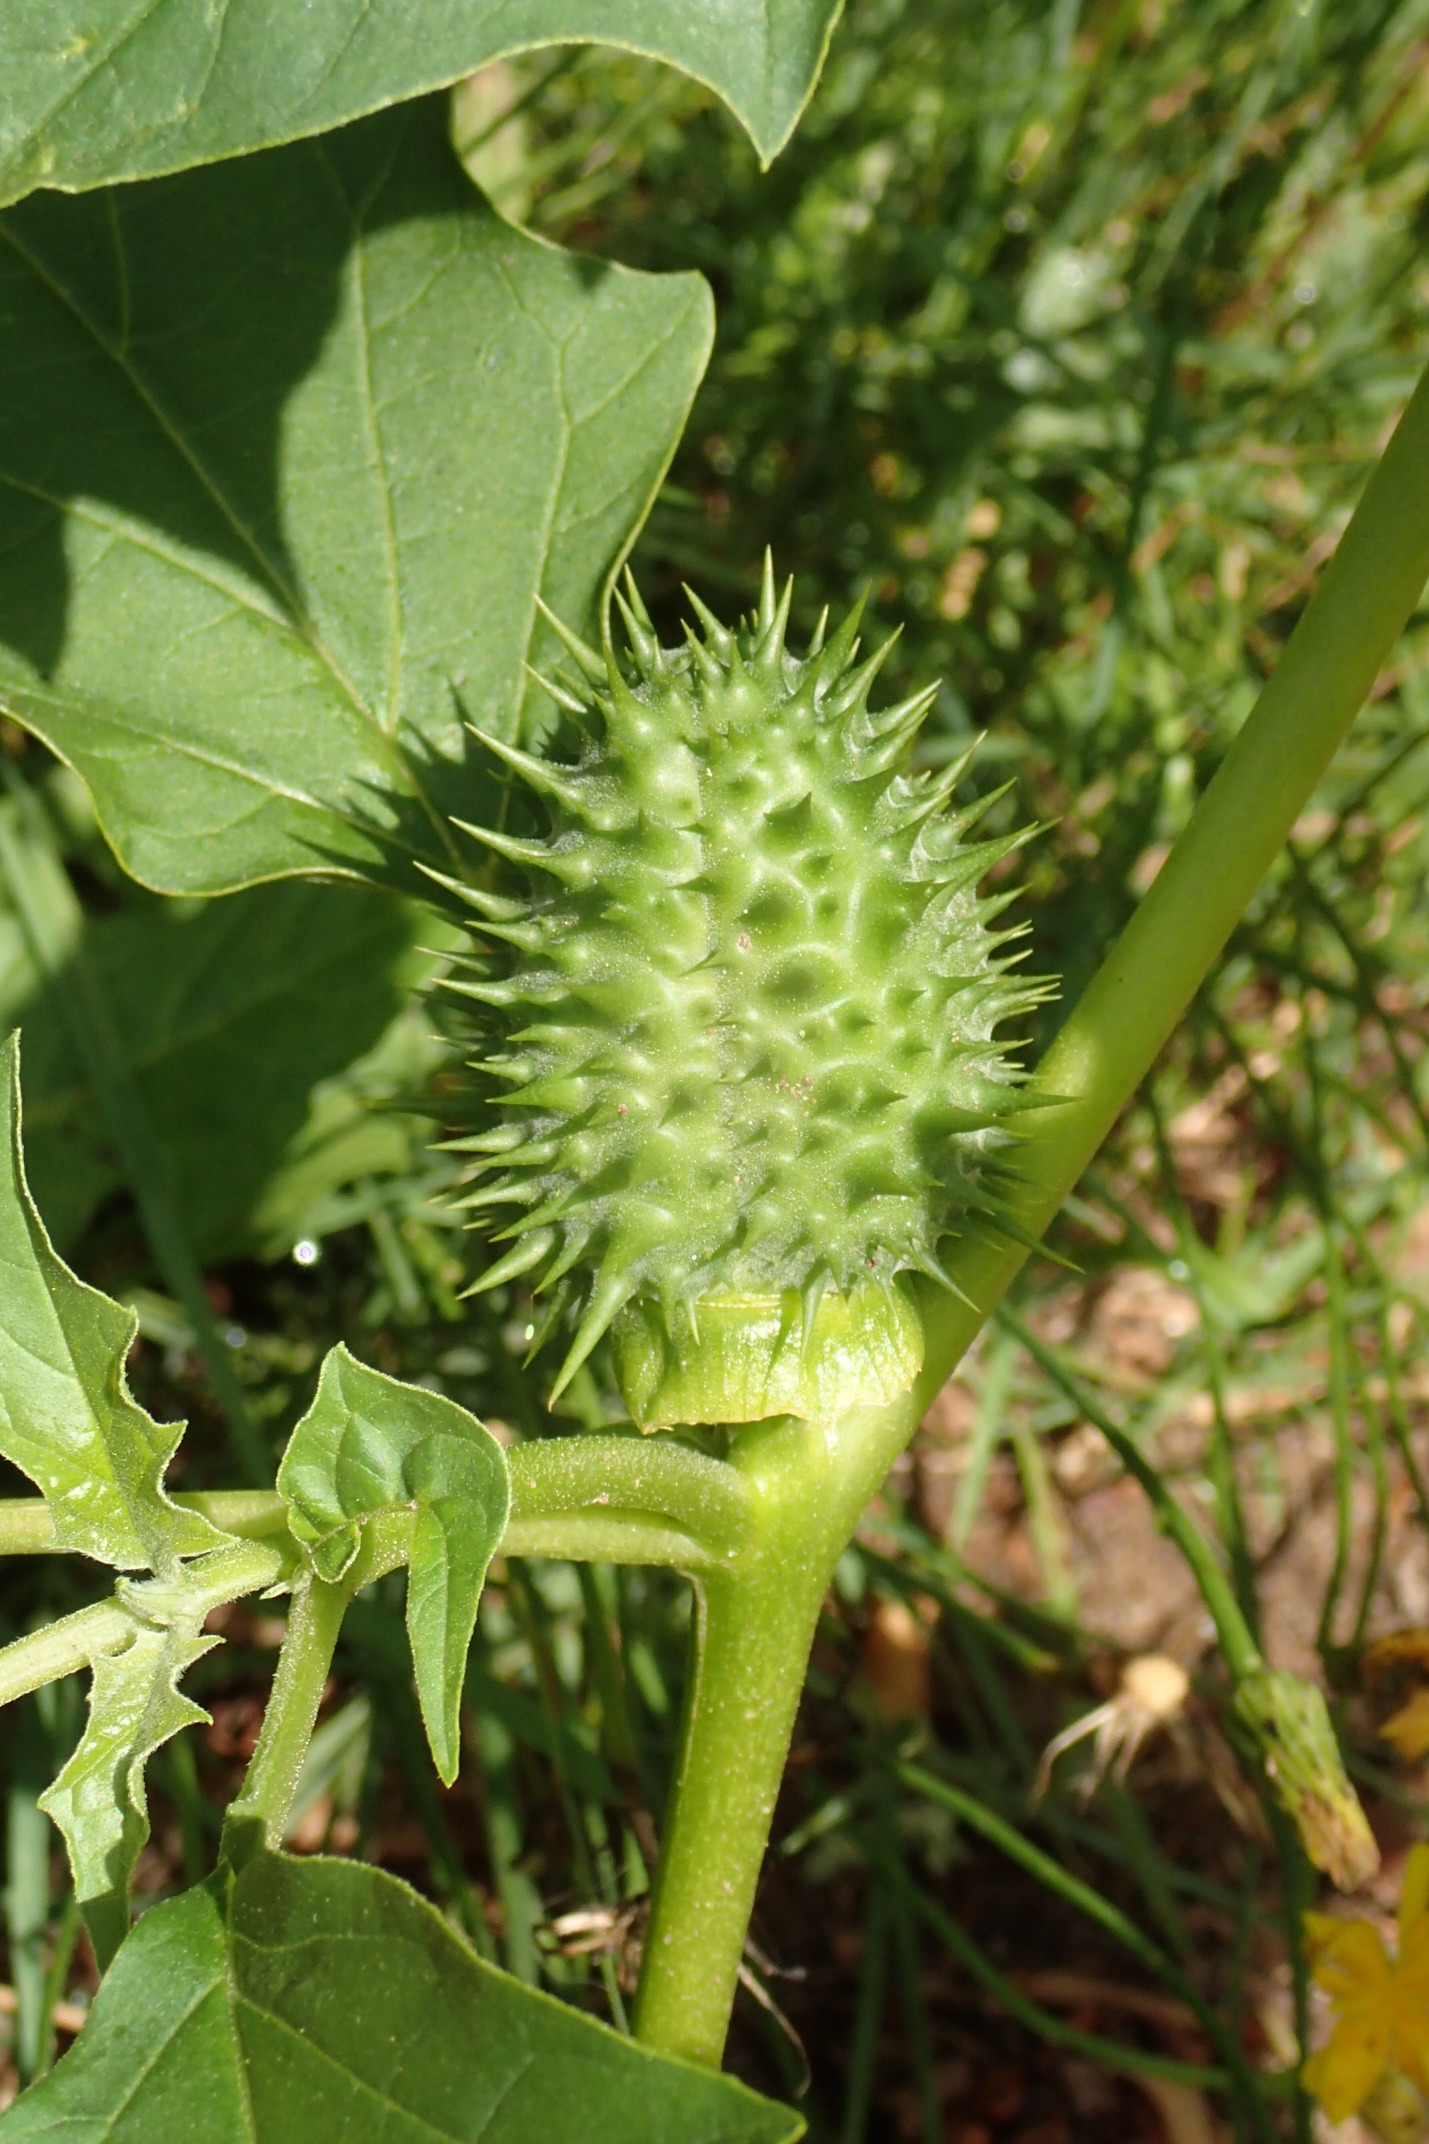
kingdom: Plantae
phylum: Tracheophyta
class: Magnoliopsida
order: Solanales
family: Solanaceae
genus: Datura
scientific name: Datura stramonium
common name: Pigæble
